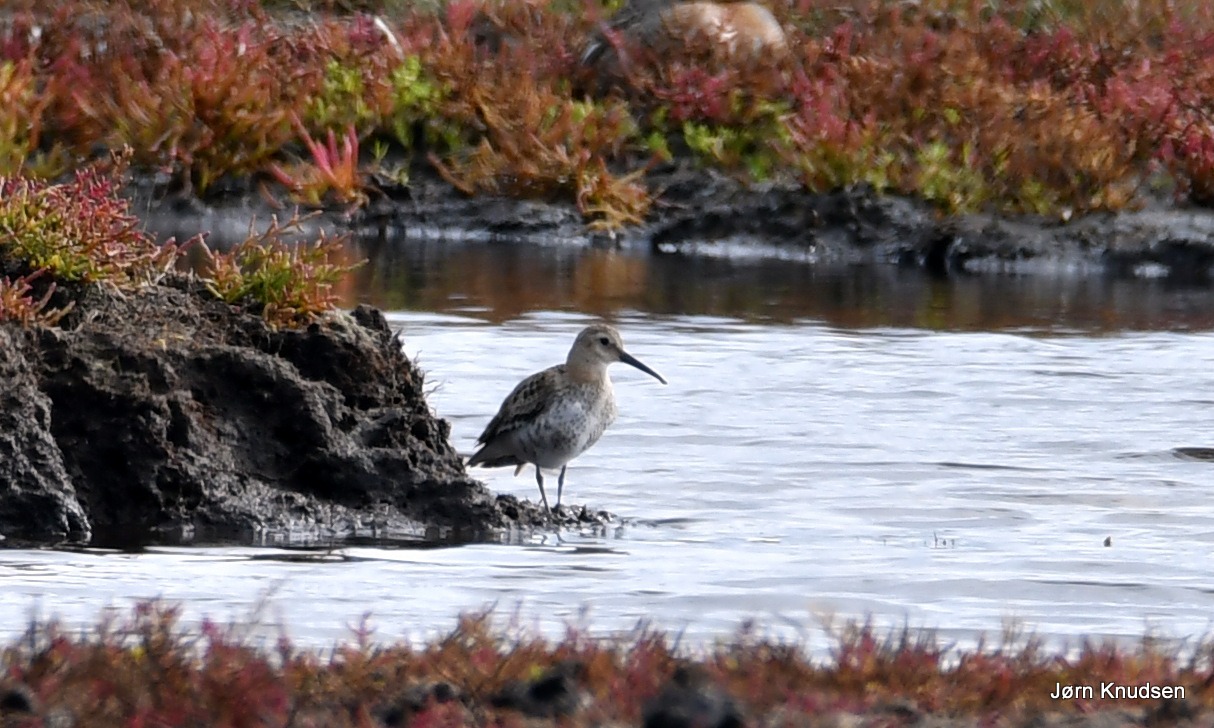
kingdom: Animalia
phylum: Chordata
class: Aves
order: Charadriiformes
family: Scolopacidae
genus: Calidris
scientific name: Calidris alpina
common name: Almindelig ryle
